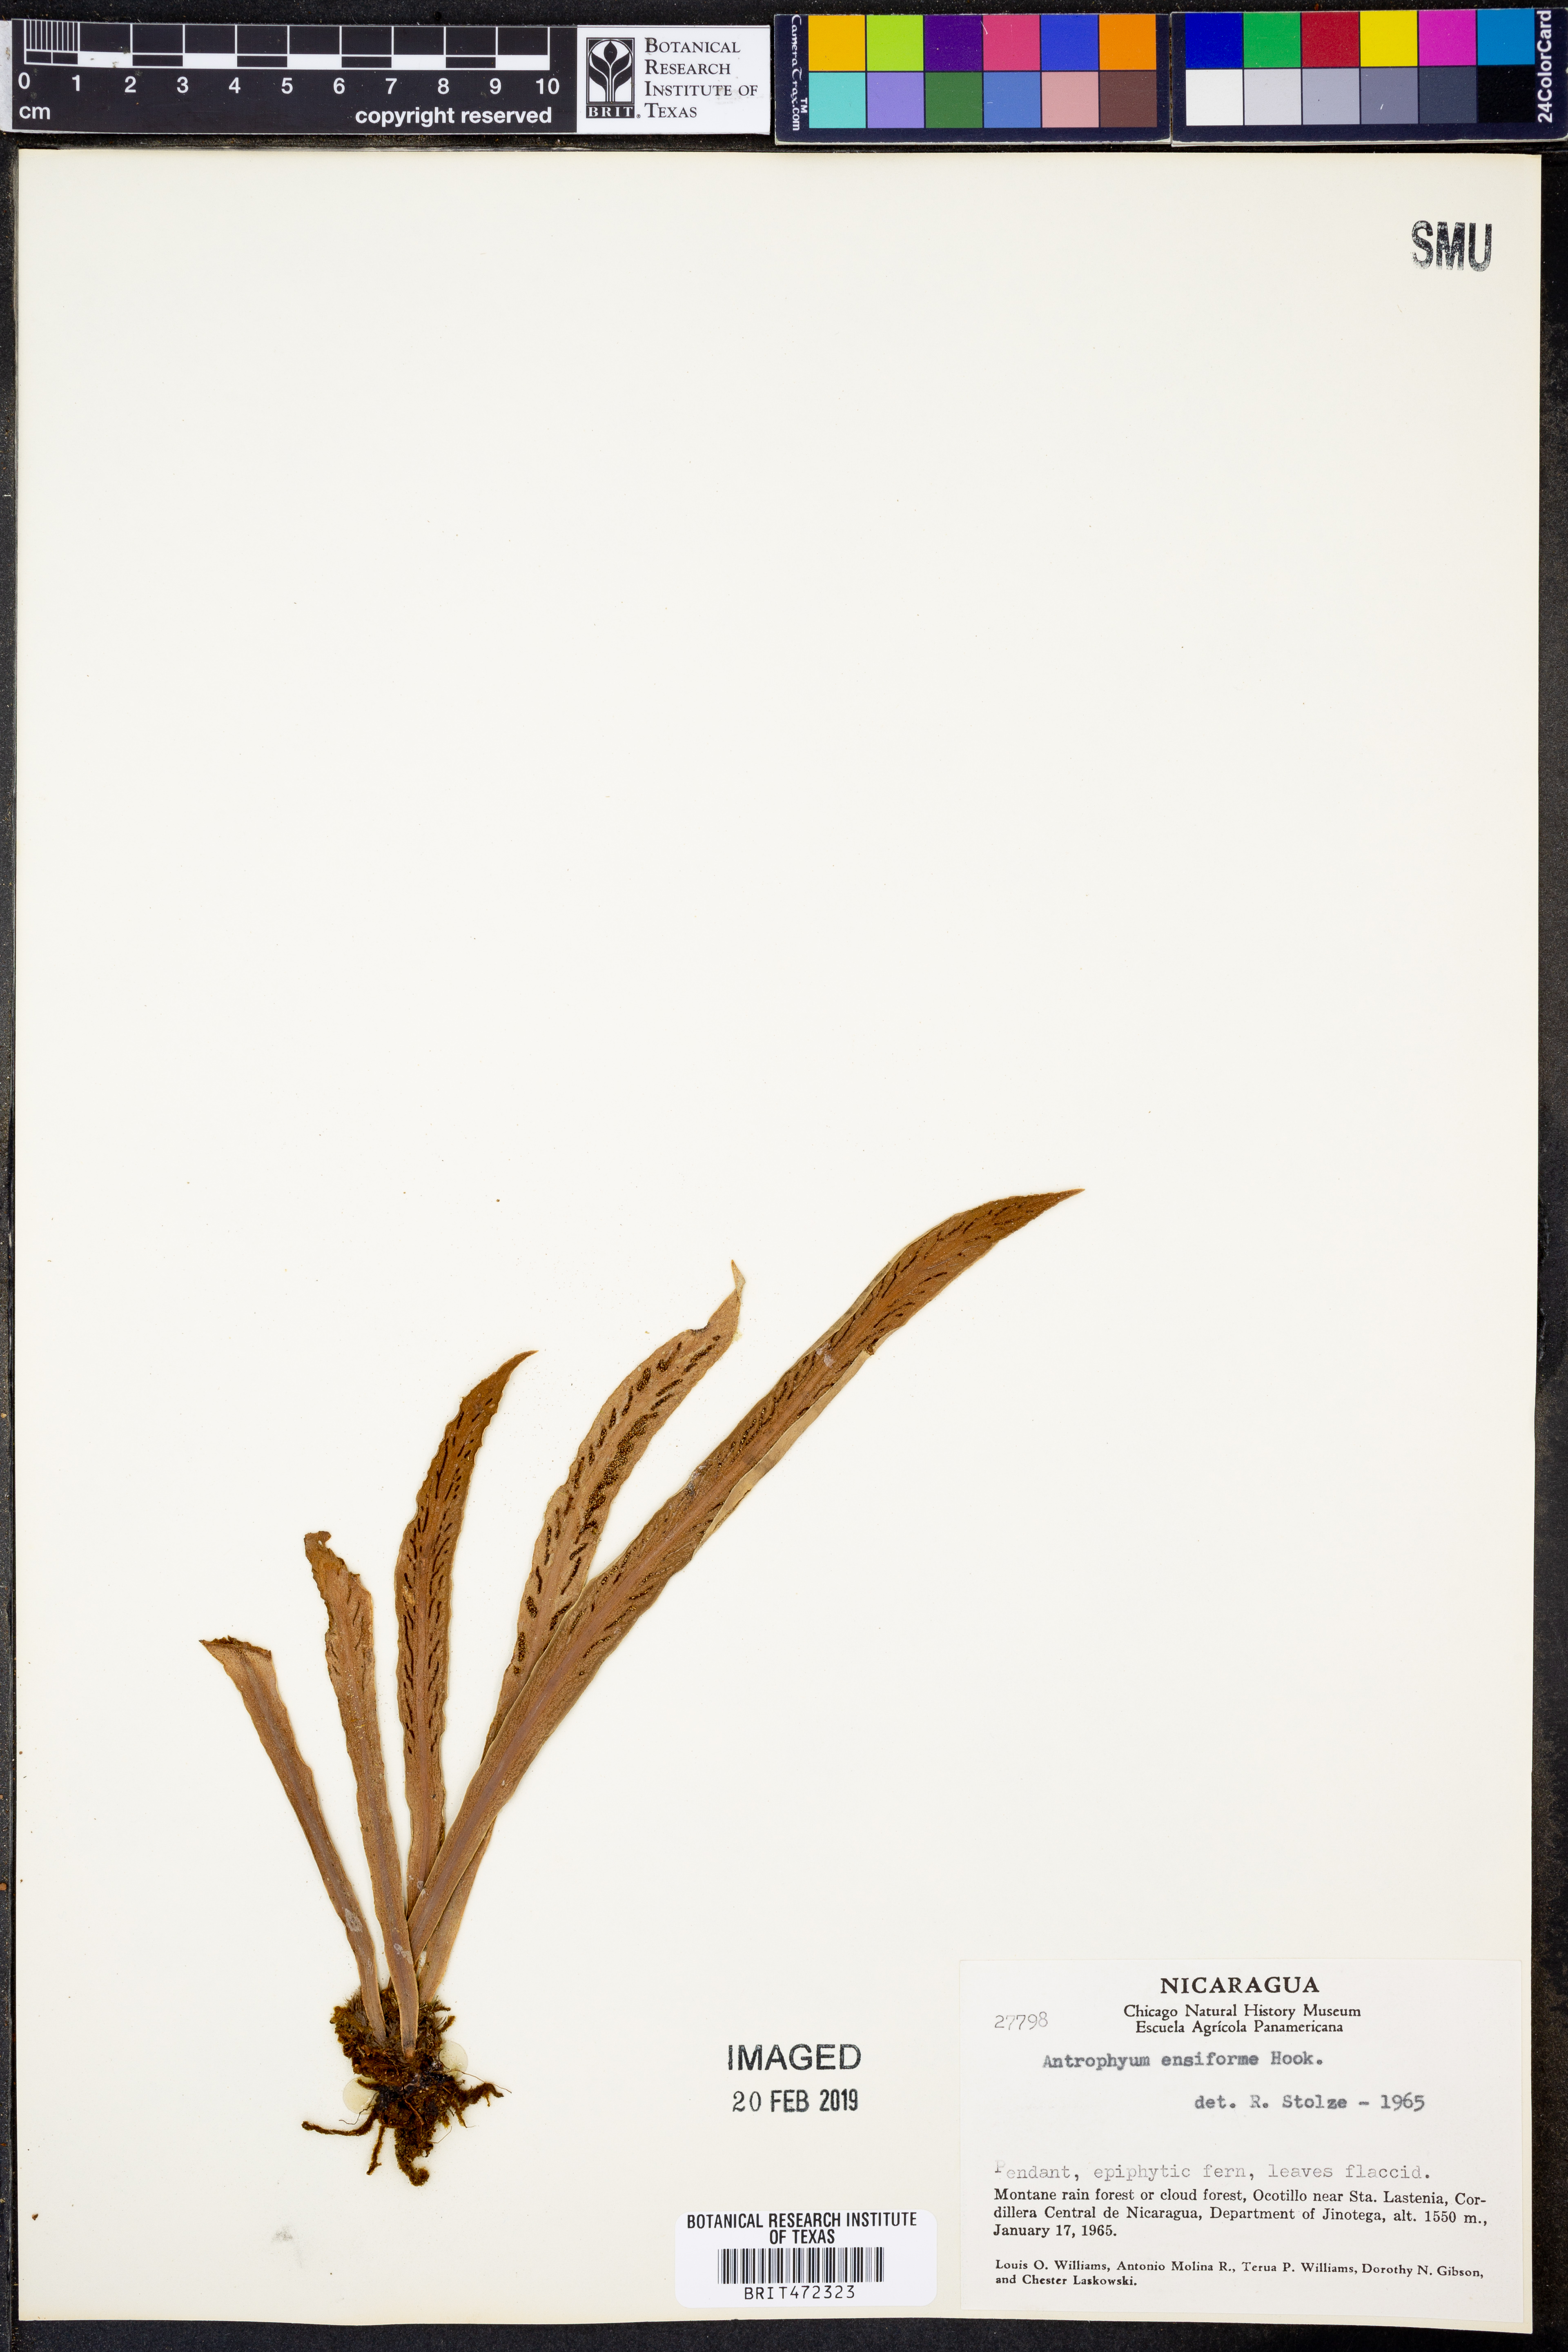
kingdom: Plantae
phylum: Tracheophyta
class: Polypodiopsida
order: Polypodiales
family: Pteridaceae
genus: Scoliosorus
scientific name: Scoliosorus ensiformis
